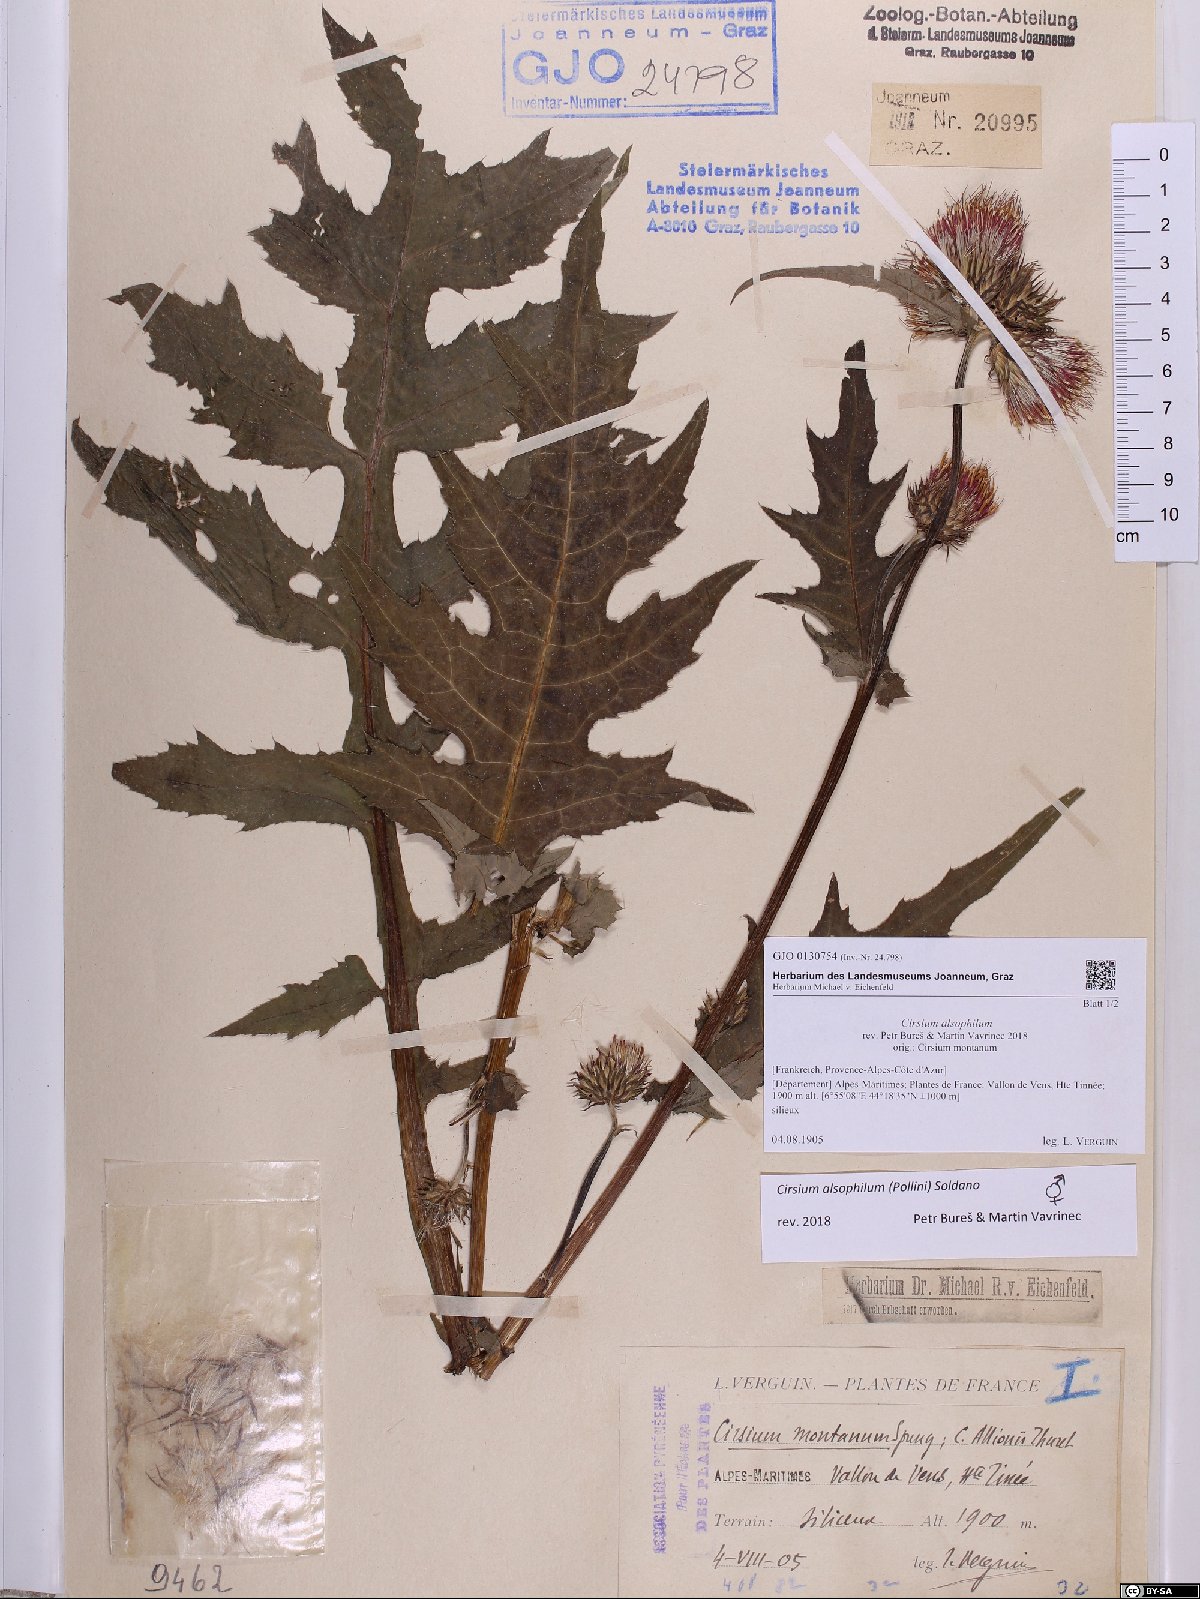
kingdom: Plantae
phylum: Tracheophyta
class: Magnoliopsida
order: Asterales
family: Asteraceae
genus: Cirsium
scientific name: Cirsium alsophilum
